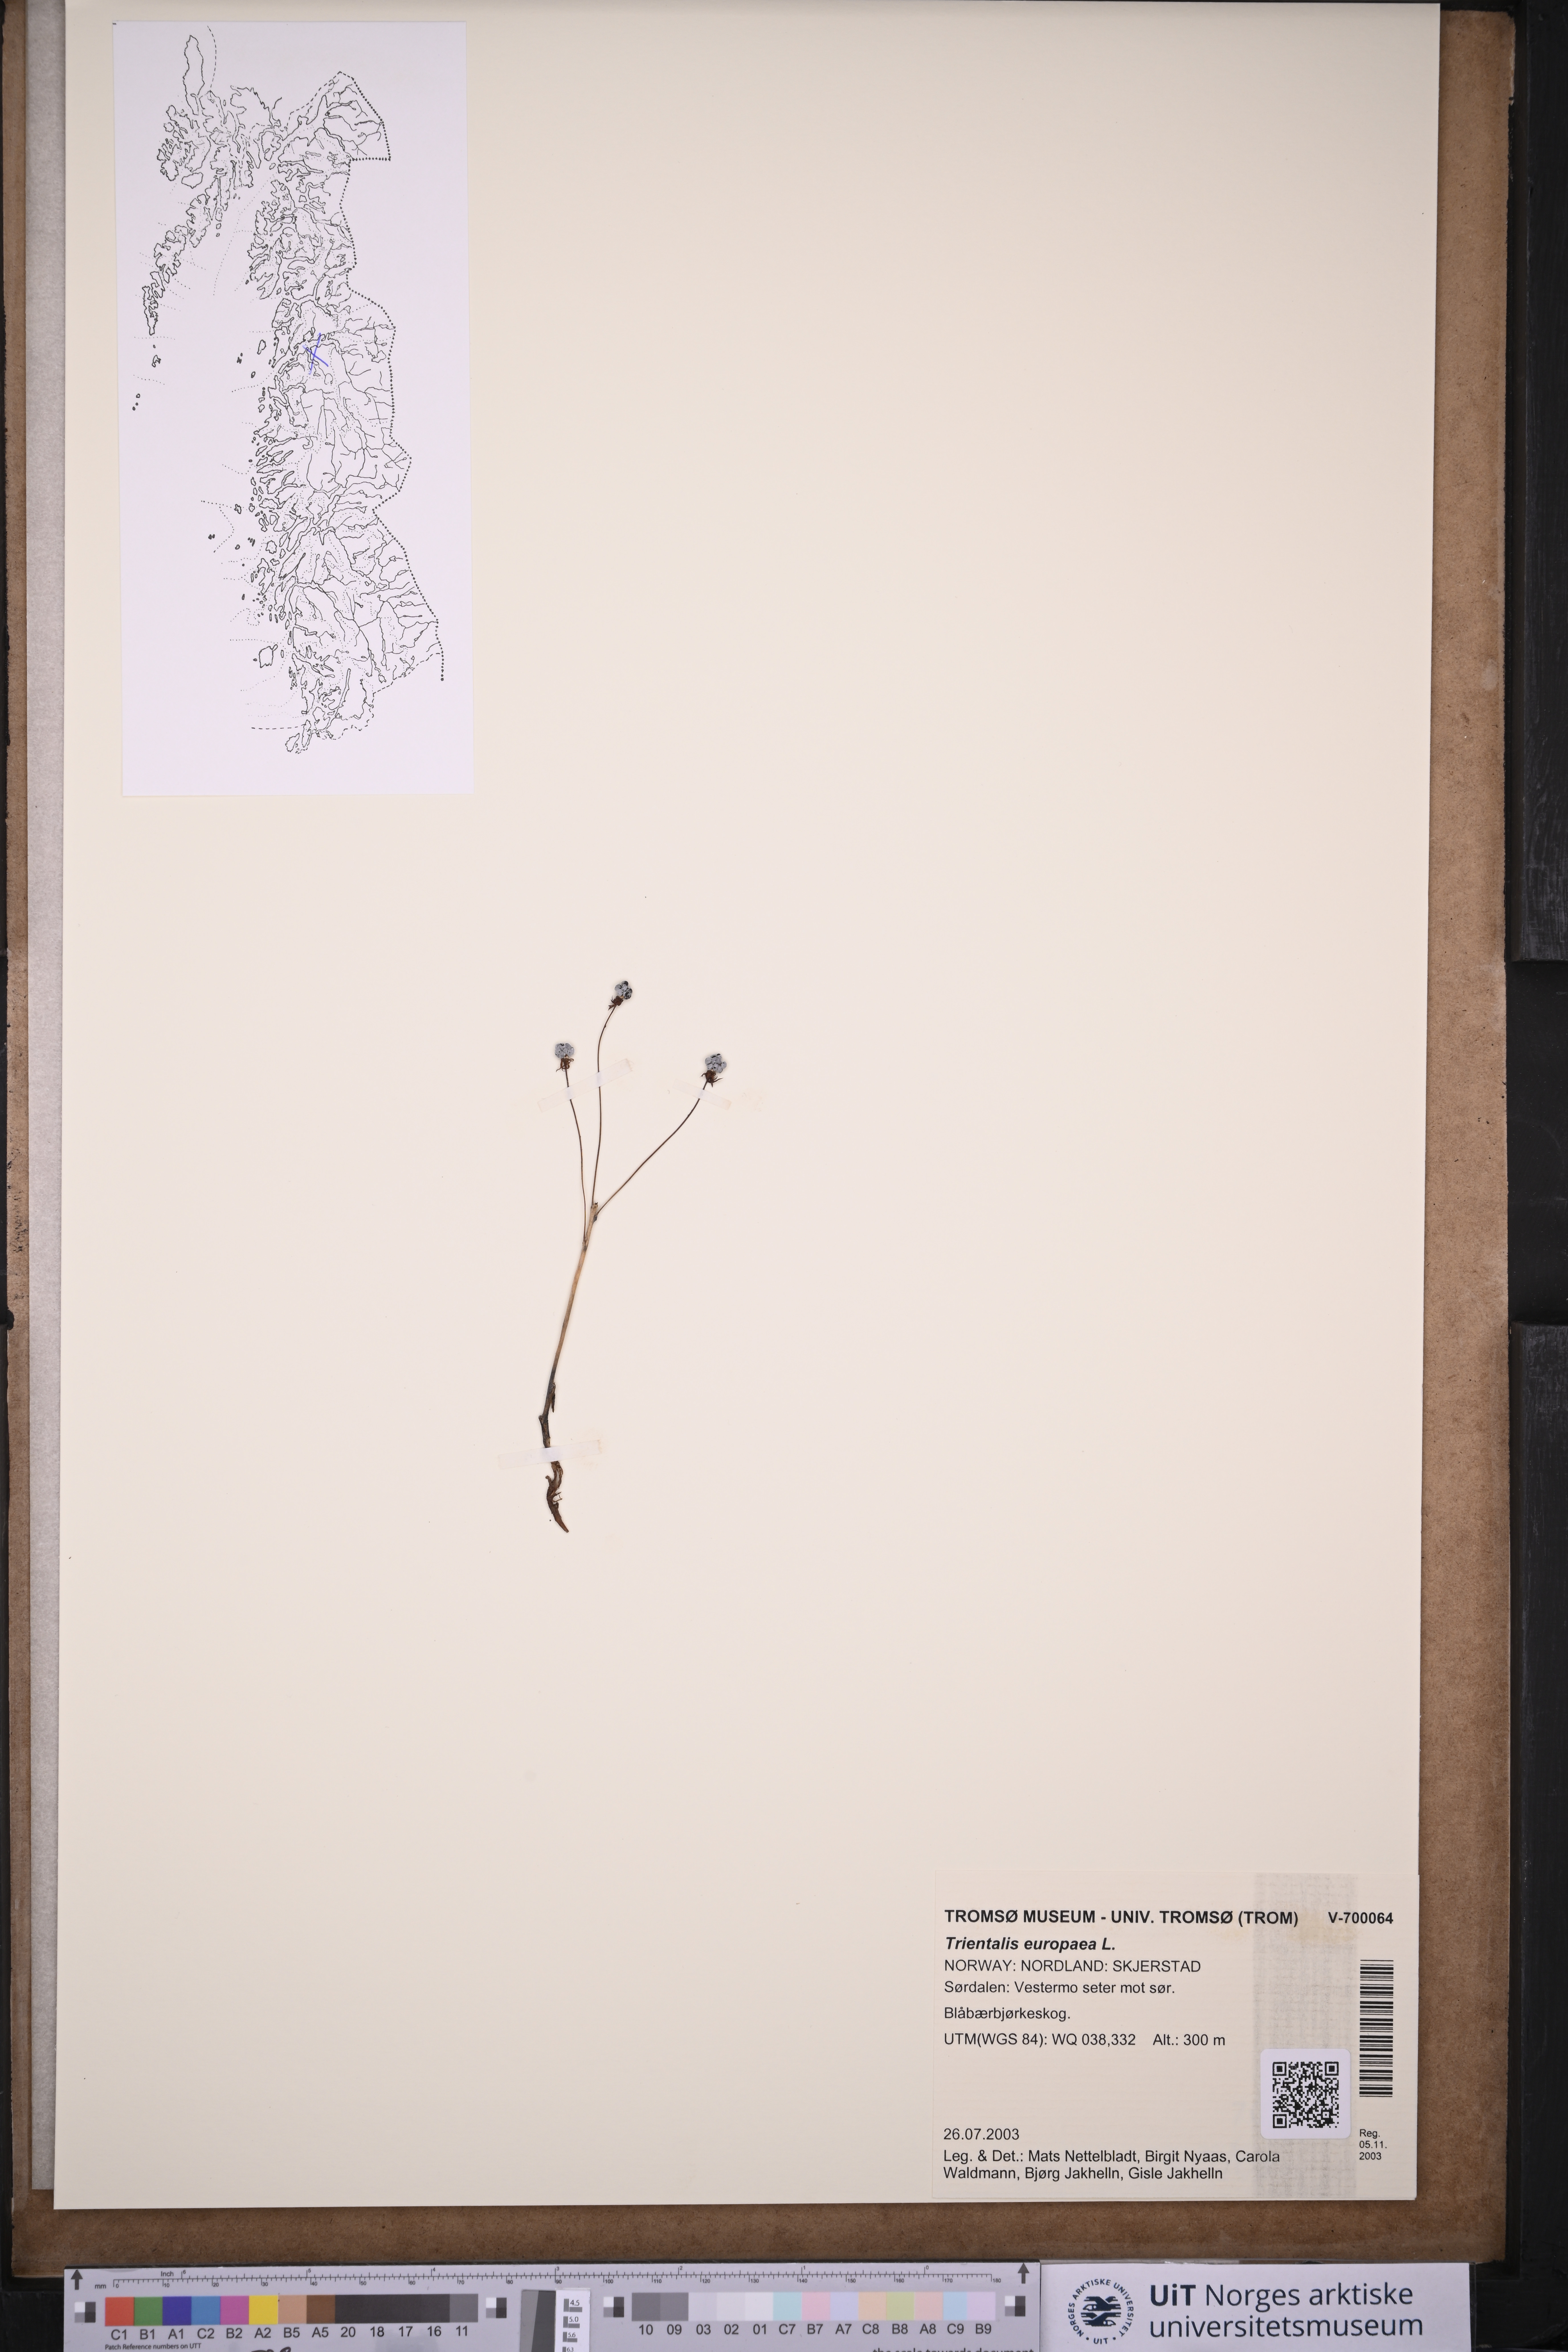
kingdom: Plantae
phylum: Tracheophyta
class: Magnoliopsida
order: Ericales
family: Primulaceae
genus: Lysimachia
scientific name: Lysimachia europaea
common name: Arctic starflower
